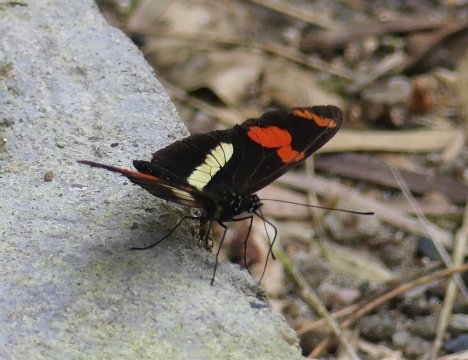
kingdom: Animalia
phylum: Arthropoda
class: Insecta
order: Lepidoptera
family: Nymphalidae
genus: Heliconius
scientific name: Heliconius telesiphe
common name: telesiphe longwing
